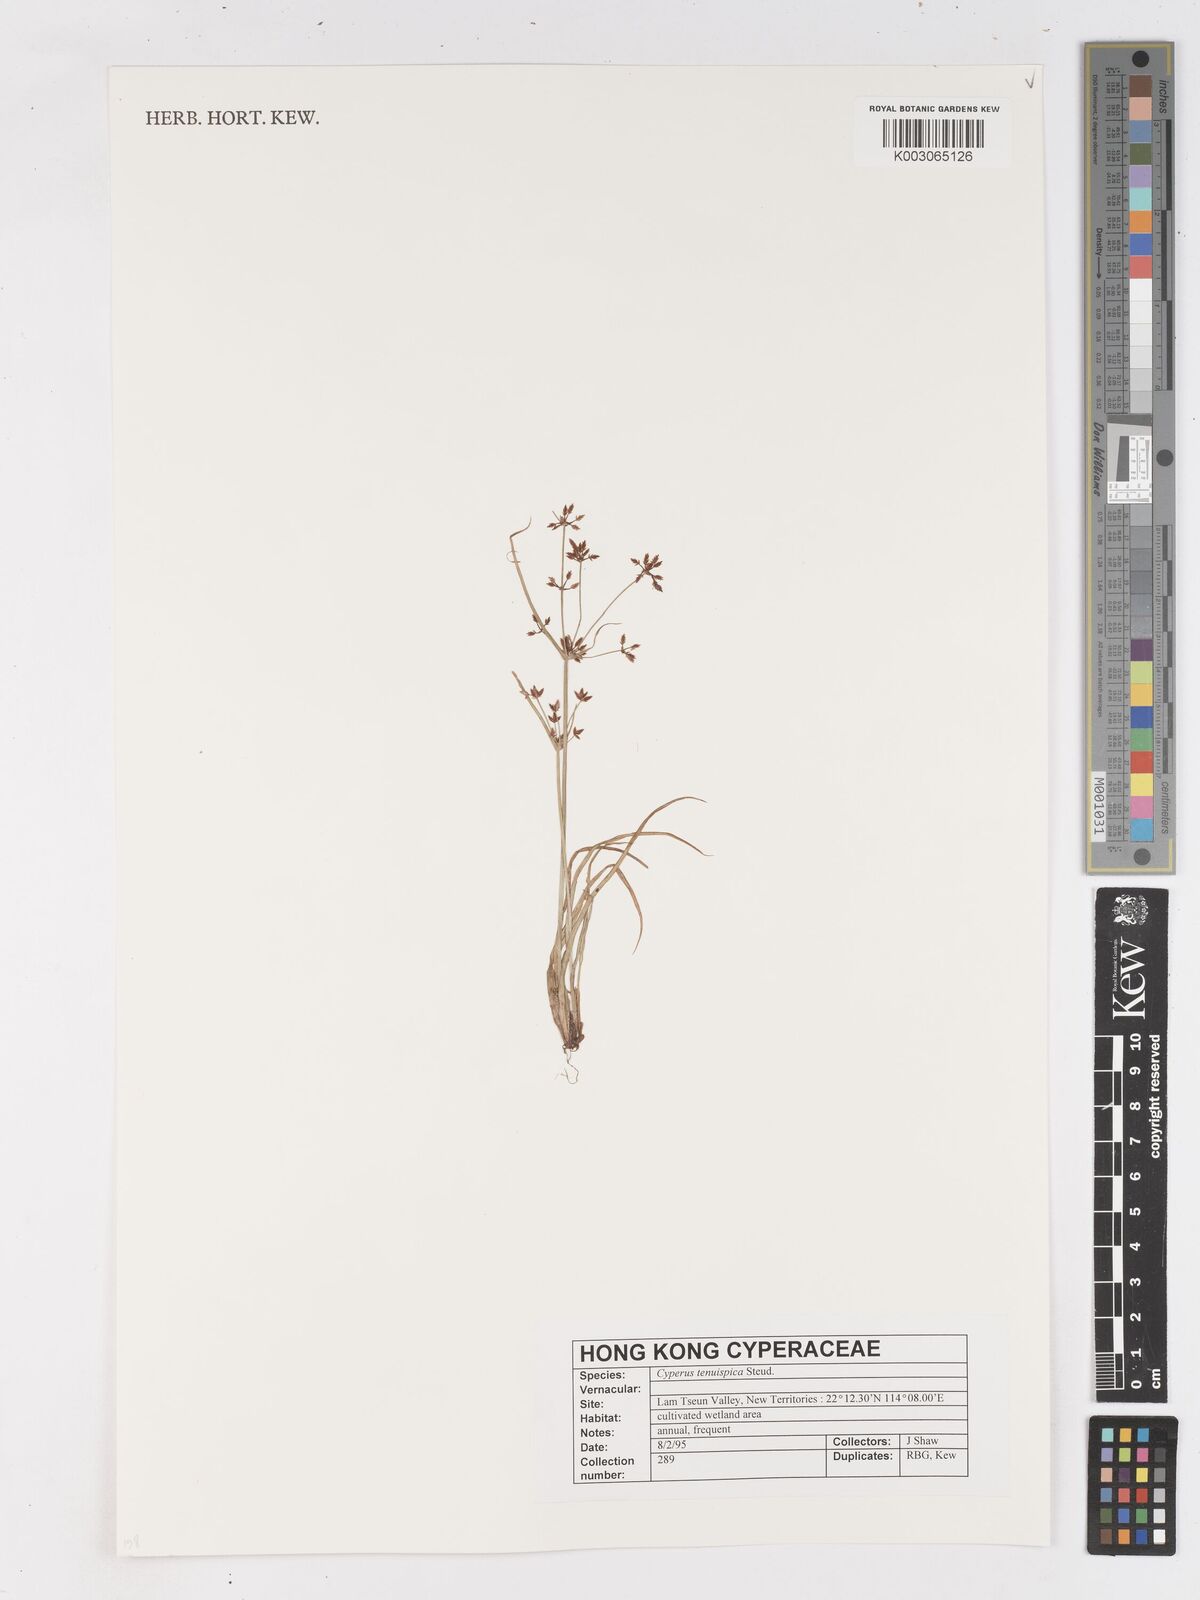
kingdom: Plantae
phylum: Tracheophyta
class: Liliopsida
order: Poales
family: Cyperaceae
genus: Cyperus
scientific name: Cyperus tenuispica
